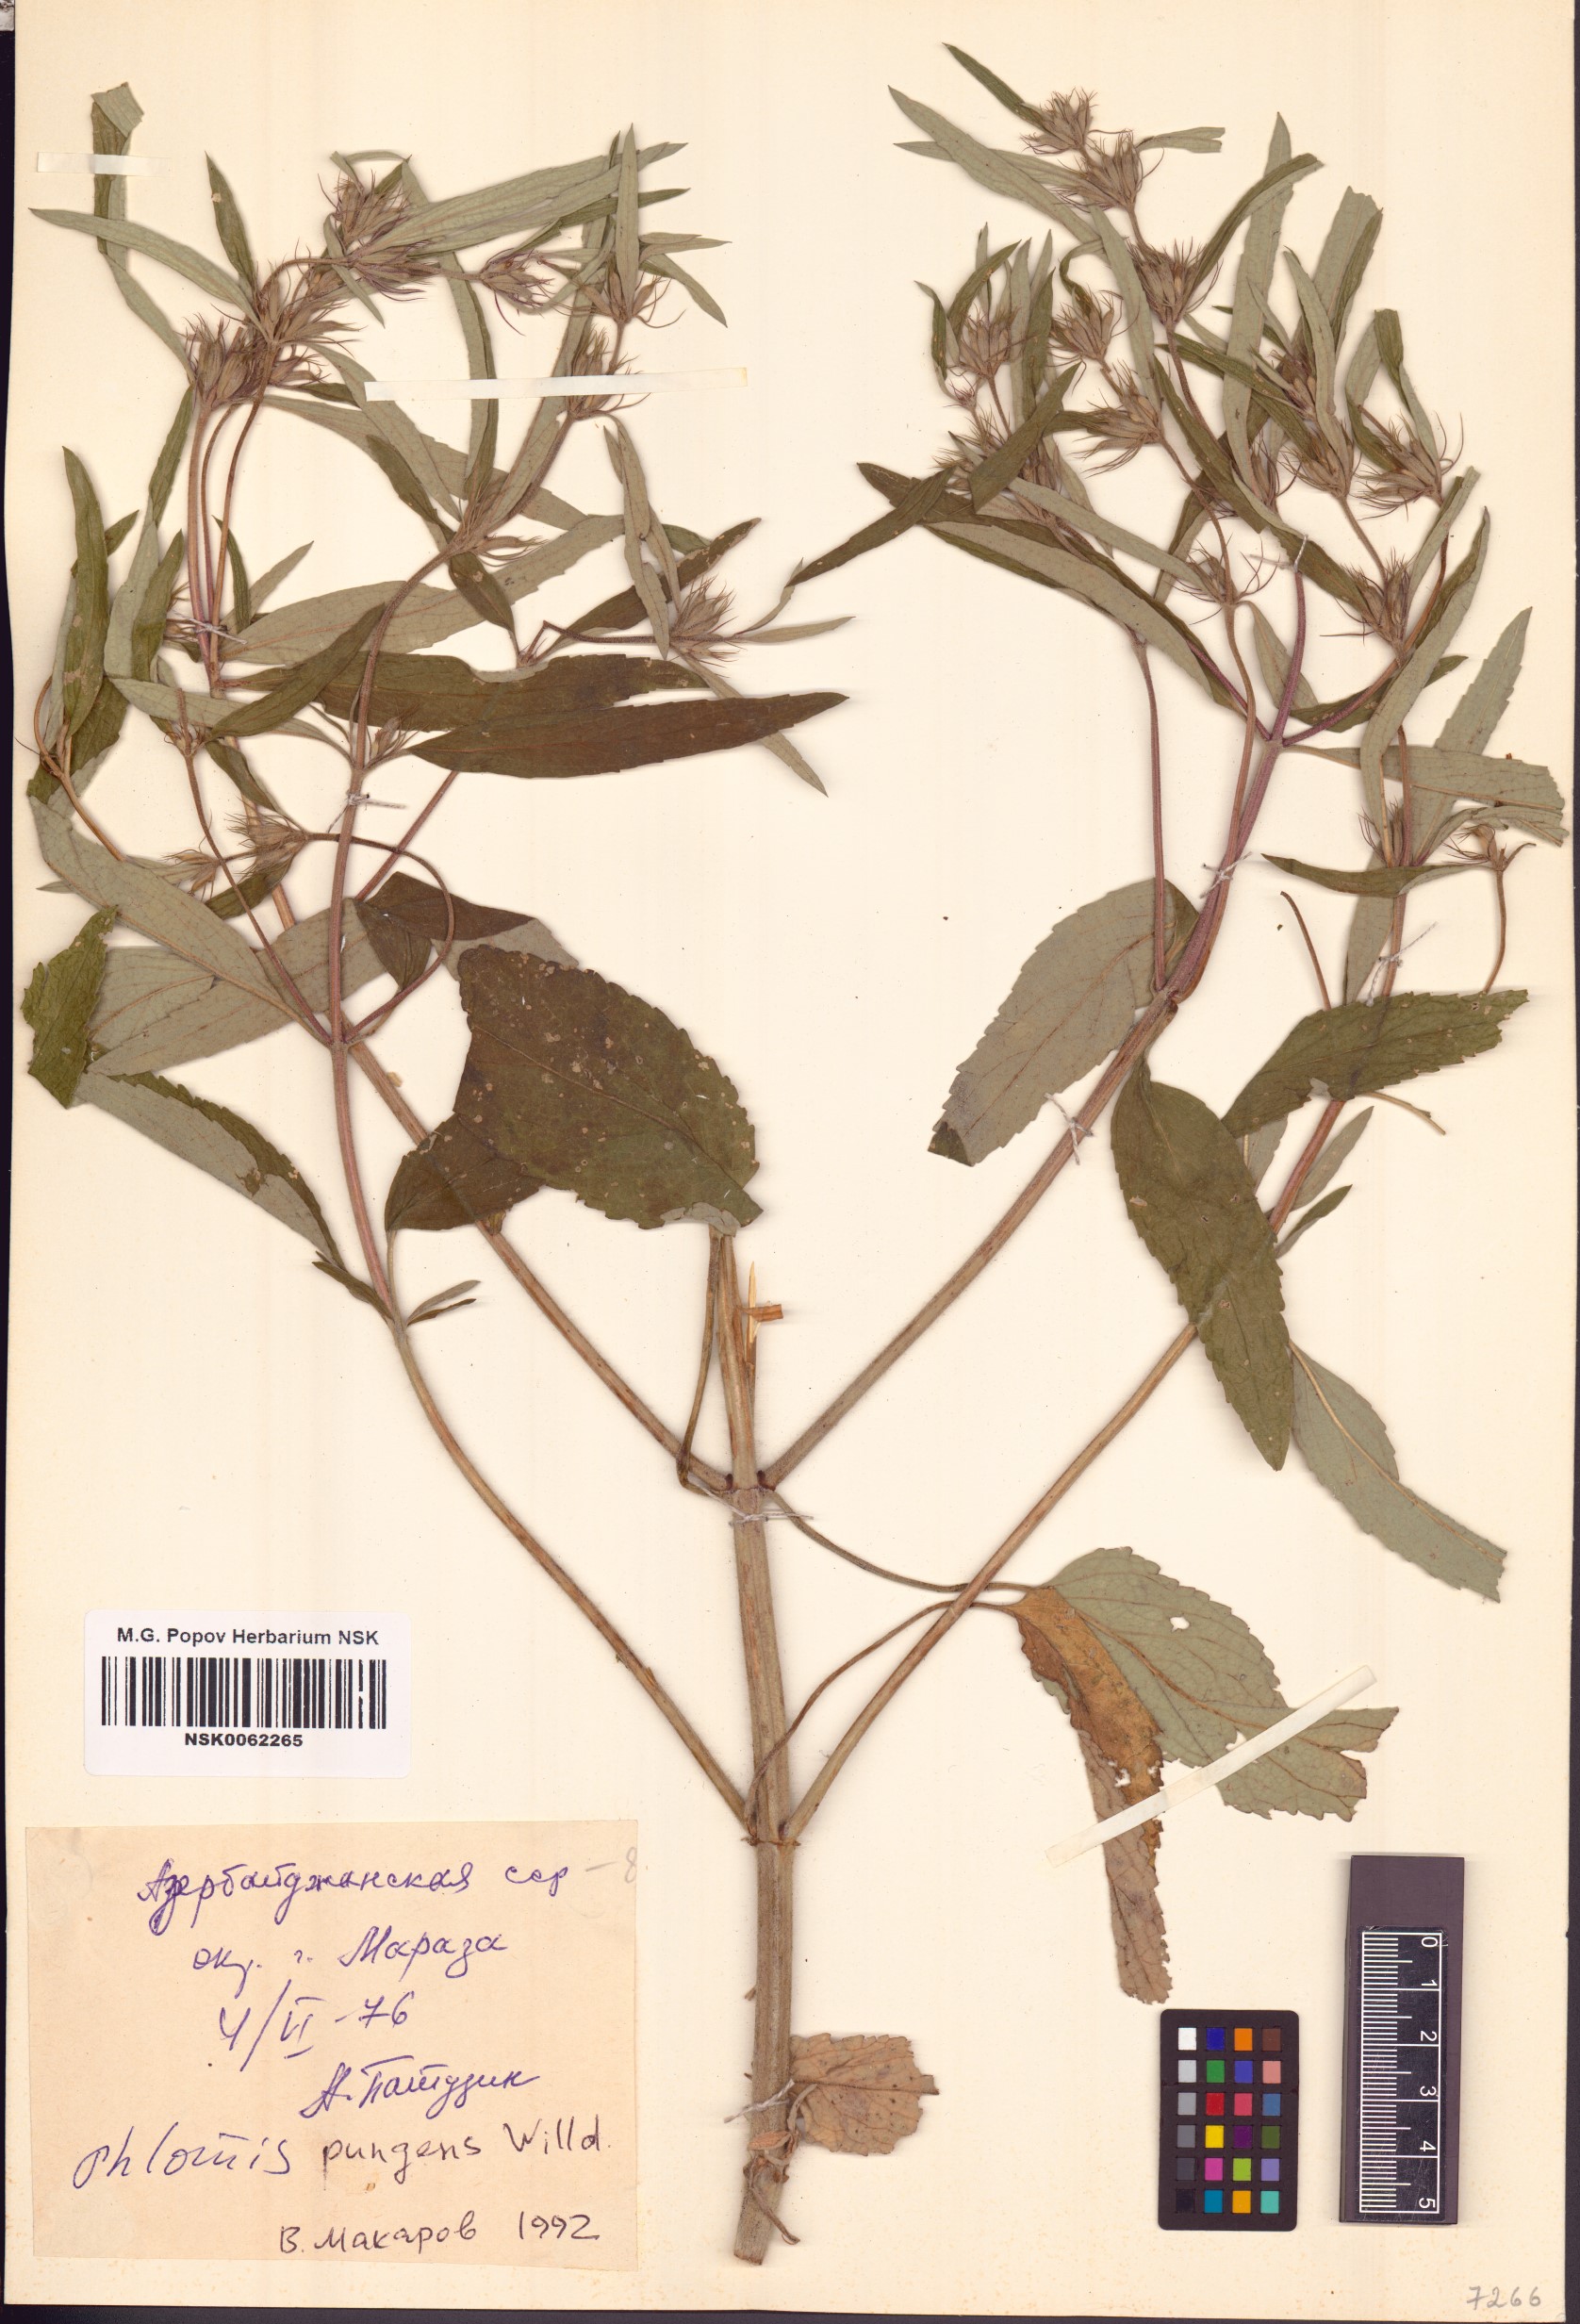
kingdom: Plantae
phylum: Tracheophyta
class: Magnoliopsida
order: Lamiales
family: Lamiaceae
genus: Phlomis
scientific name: Phlomis herba-venti
